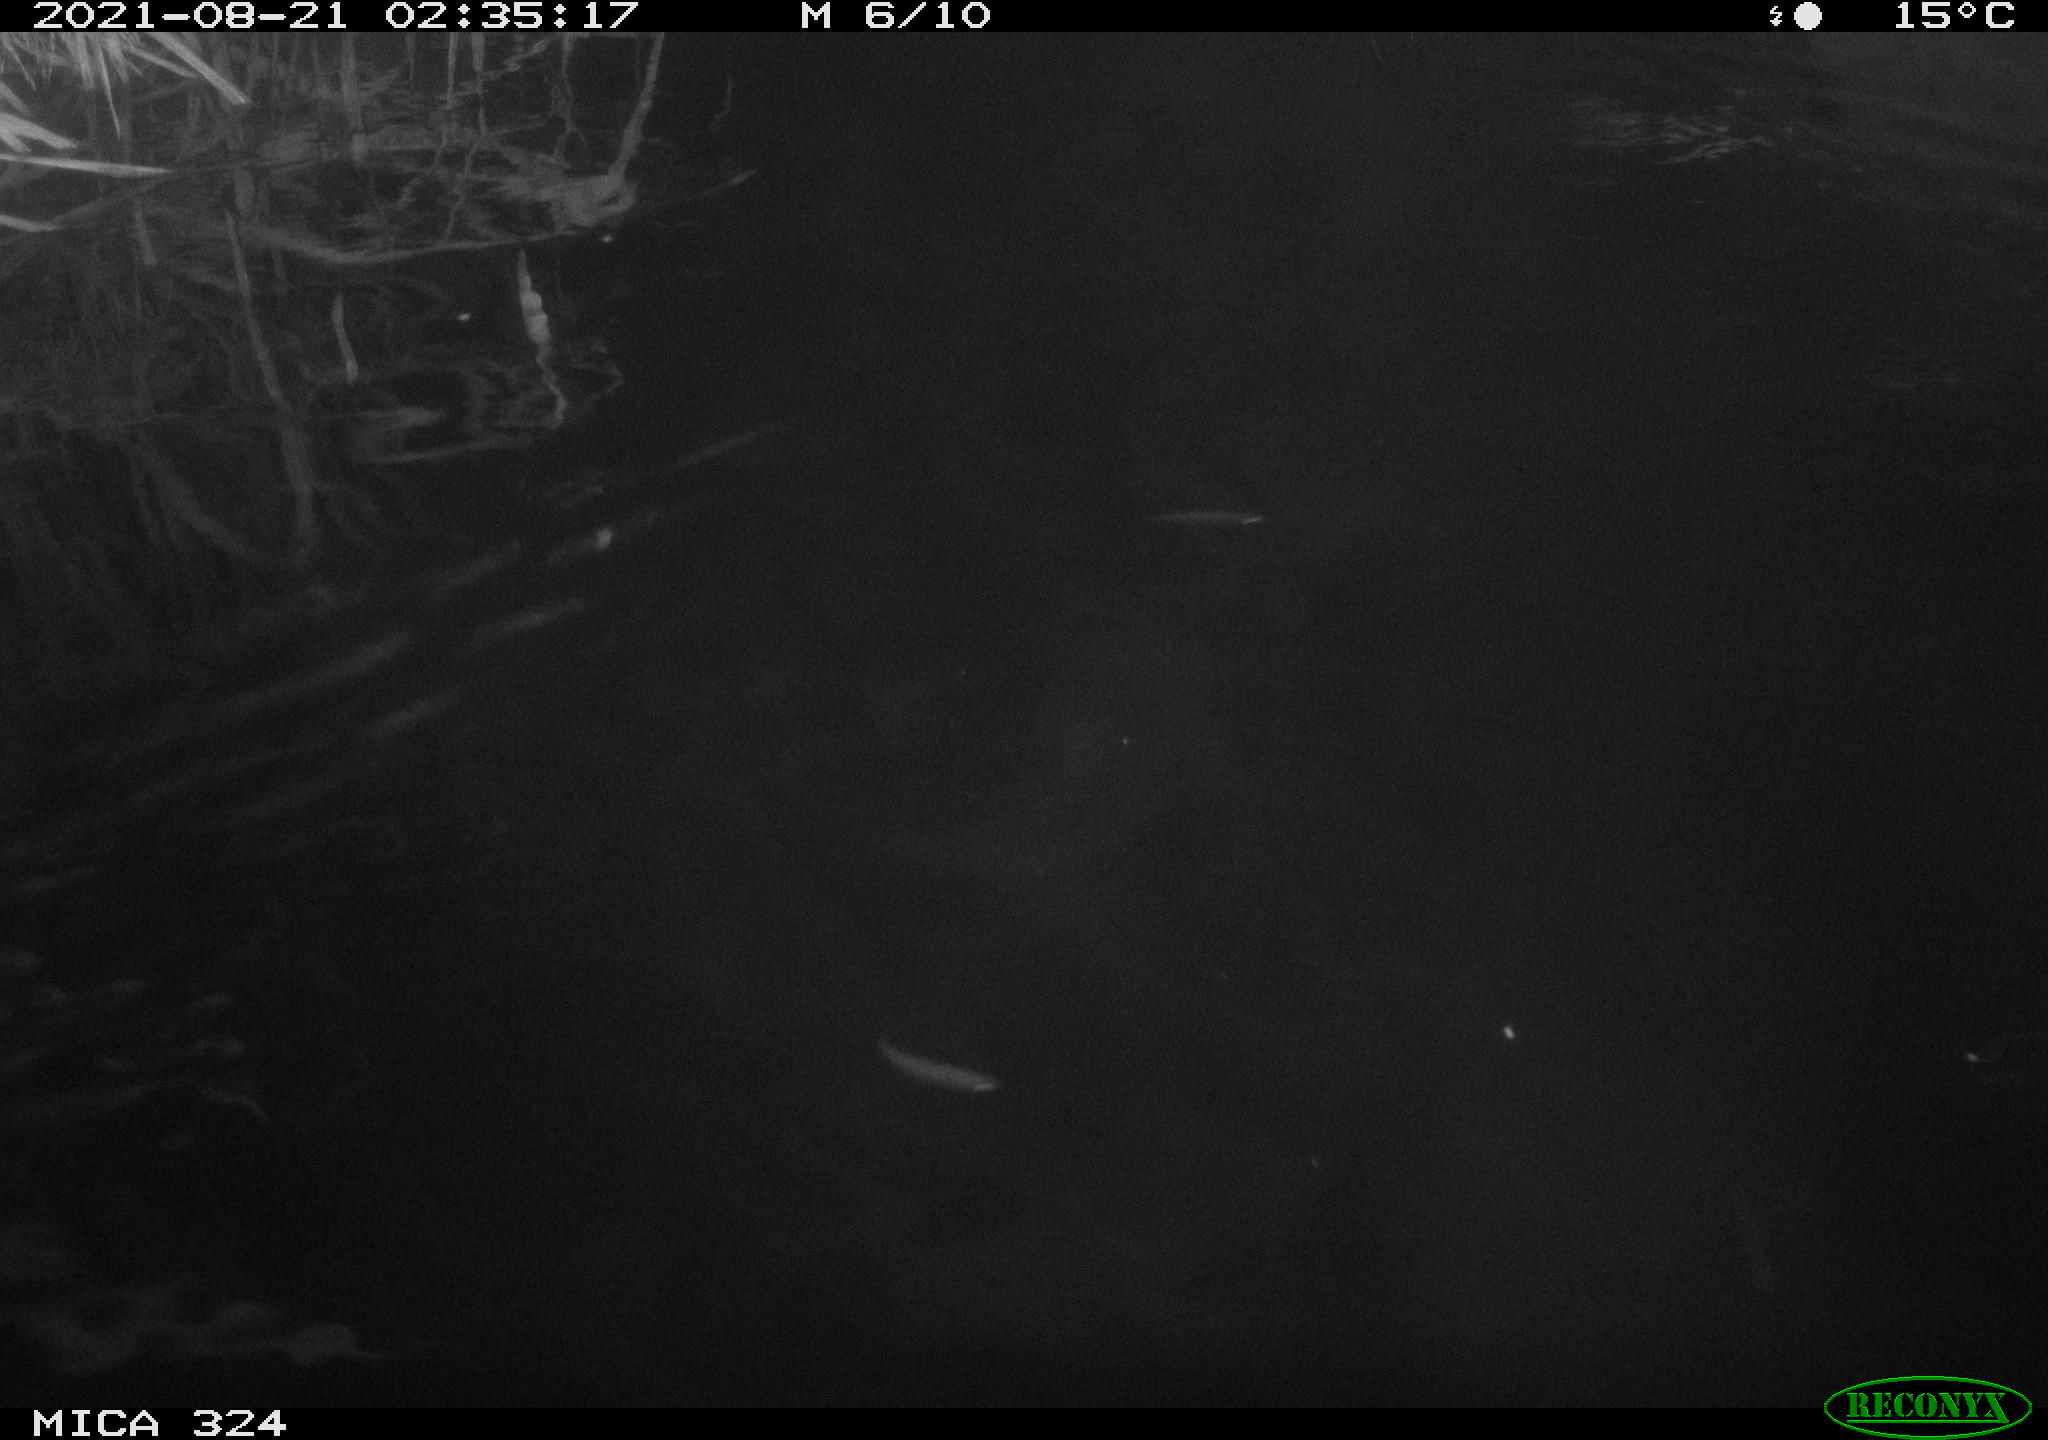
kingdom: Animalia
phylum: Chordata
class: Mammalia
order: Rodentia
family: Cricetidae
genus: Ondatra
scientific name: Ondatra zibethicus
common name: Muskrat
